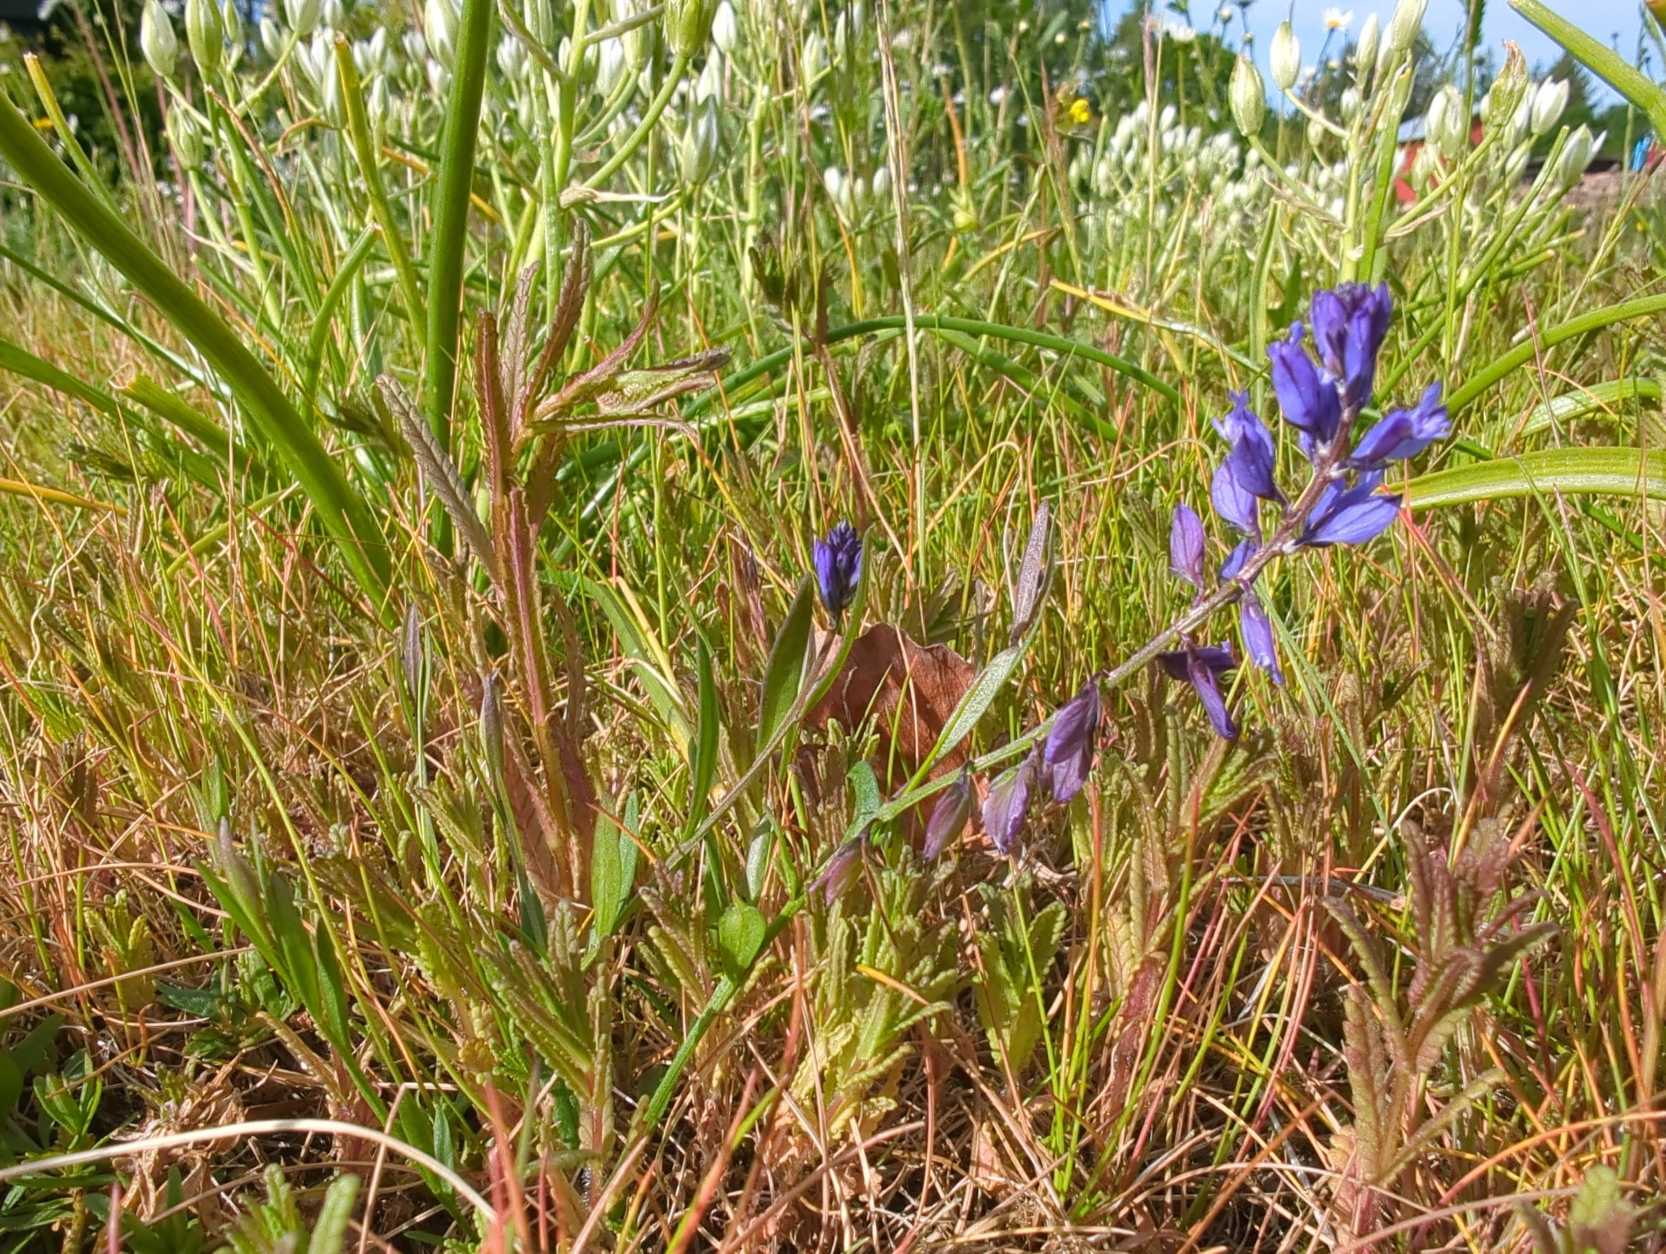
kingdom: Plantae
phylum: Tracheophyta
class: Magnoliopsida
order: Fabales
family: Polygalaceae
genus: Polygala
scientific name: Polygala vulgaris
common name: Almindelig mælkeurt
